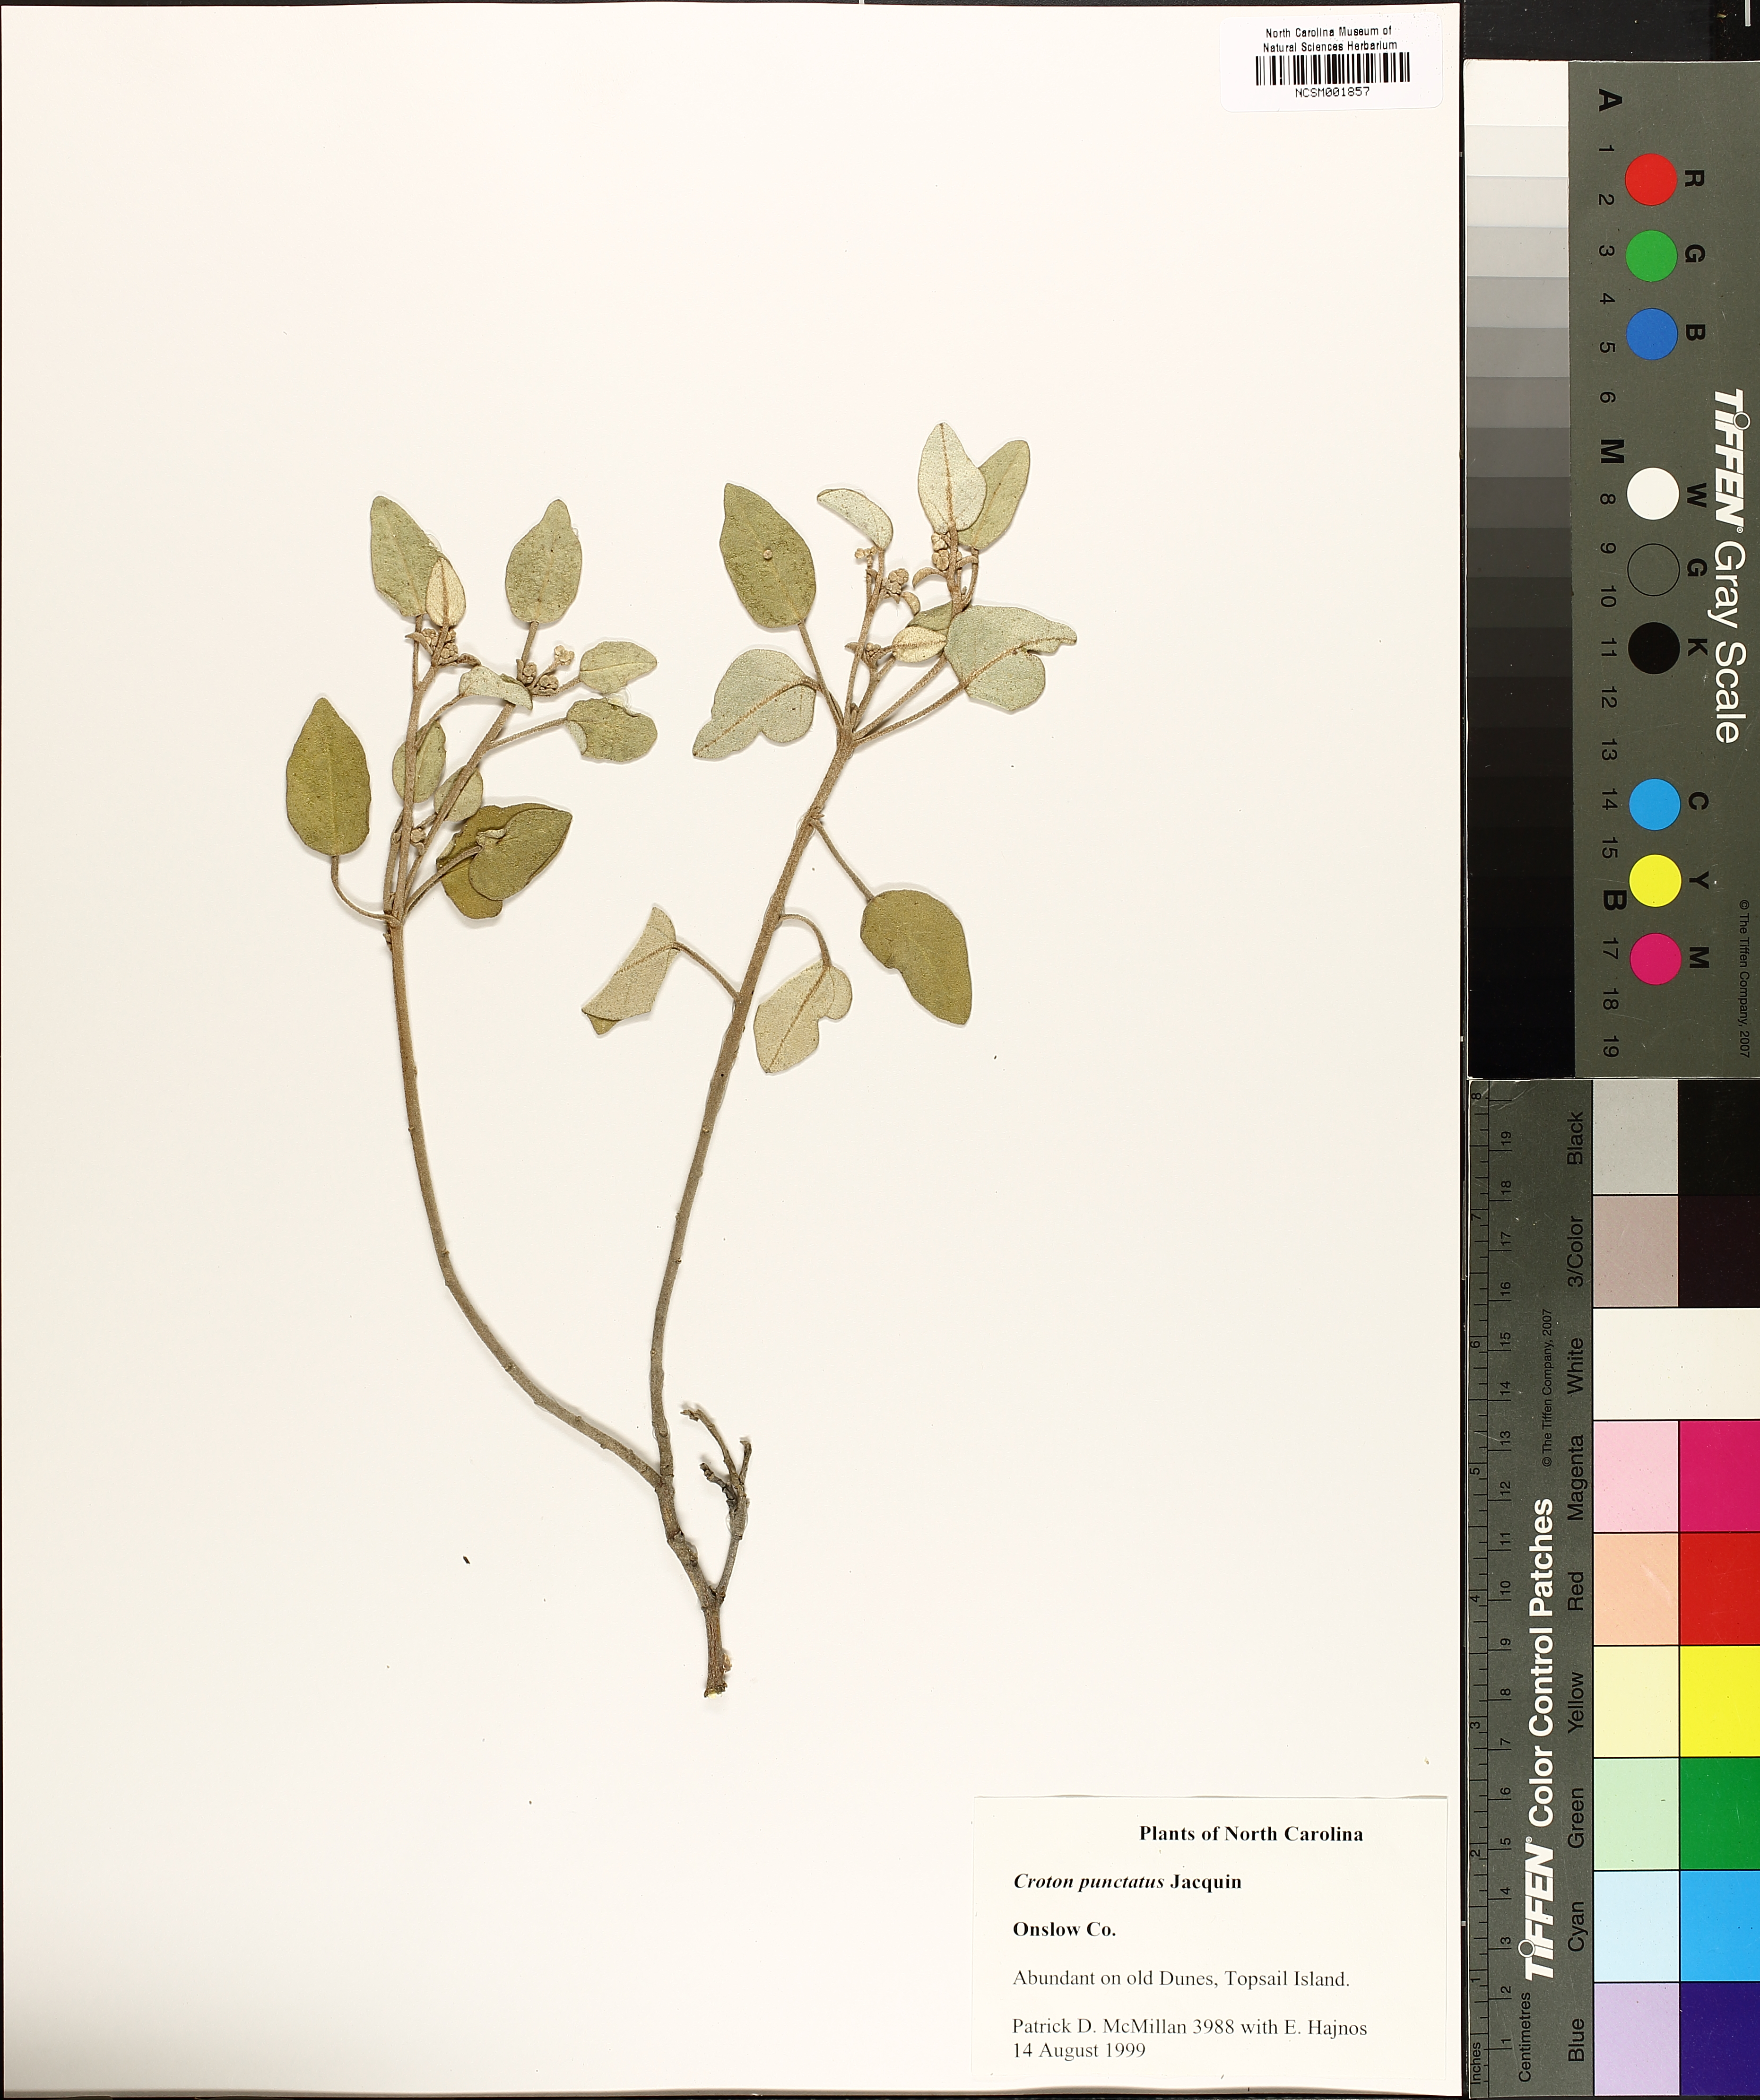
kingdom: Plantae
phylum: Tracheophyta
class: Magnoliopsida
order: Malpighiales
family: Euphorbiaceae
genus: Croton
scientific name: Croton punctatus
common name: Beach-tea
